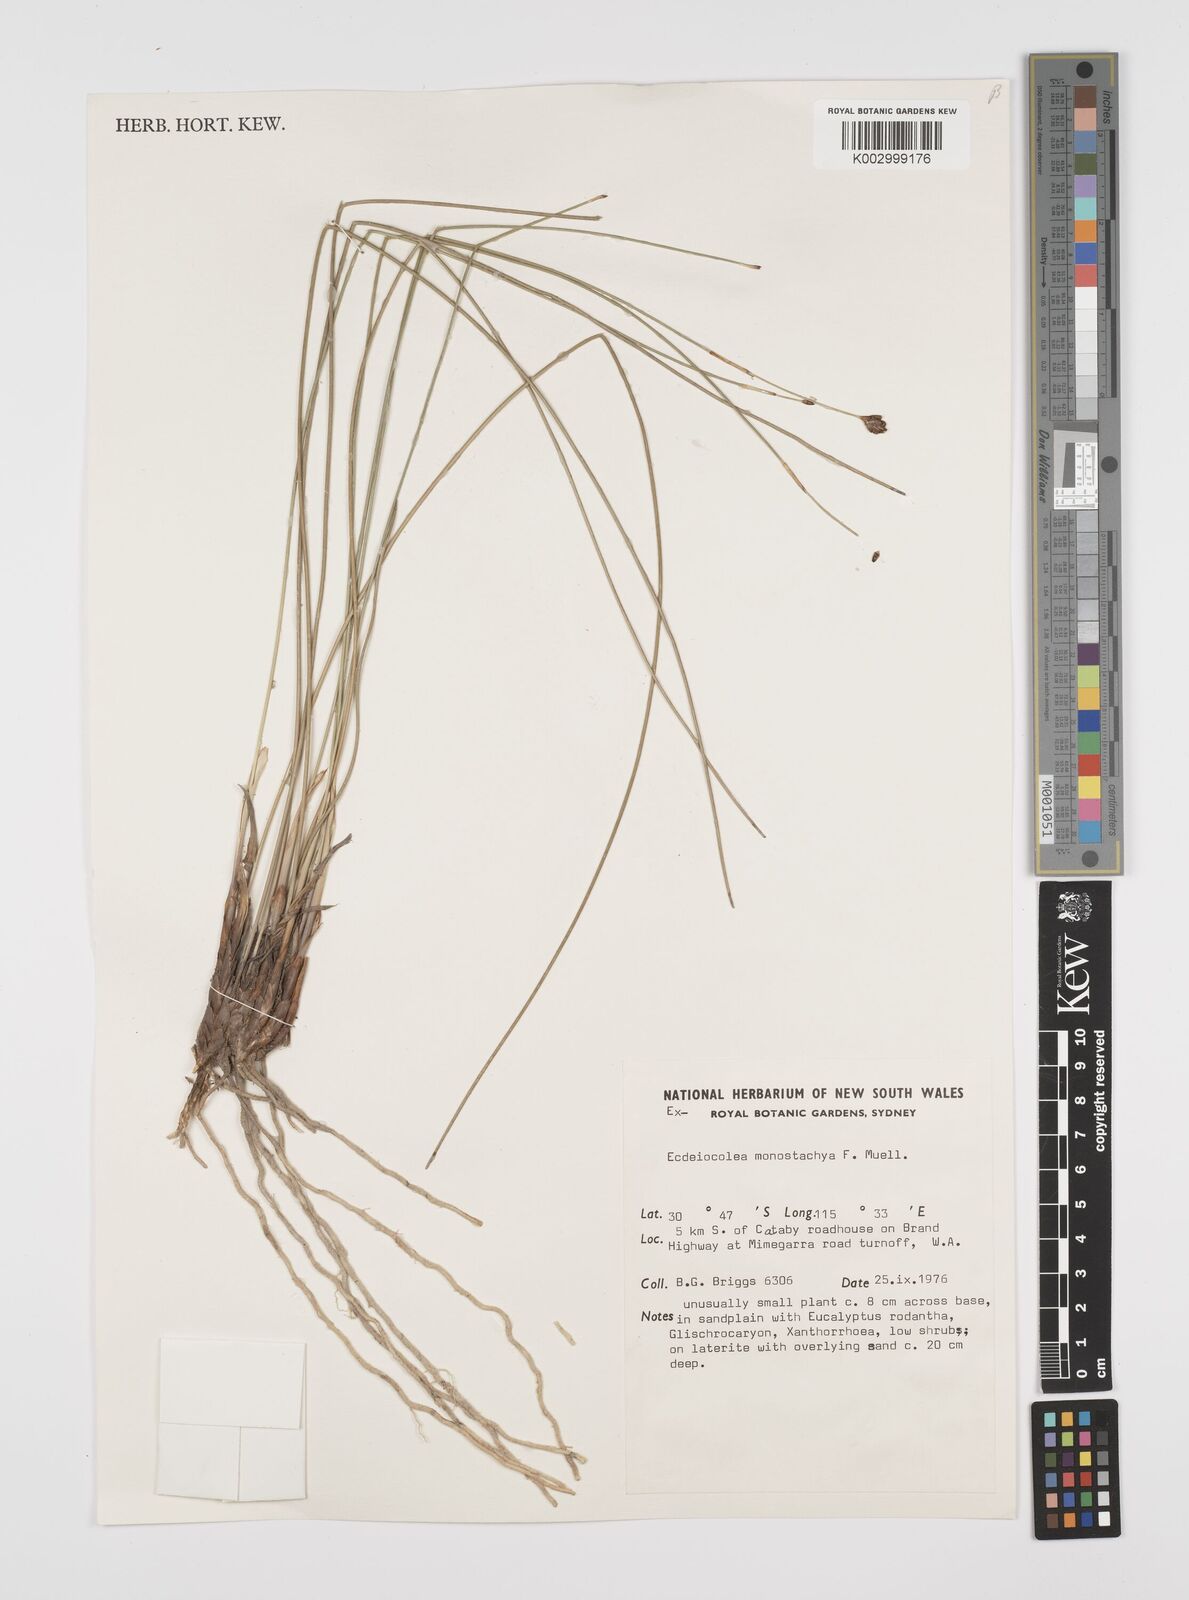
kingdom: Plantae
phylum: Tracheophyta
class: Liliopsida
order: Poales
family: Ecdeiocoleaceae
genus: Ecdeiocolea
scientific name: Ecdeiocolea monostachya
